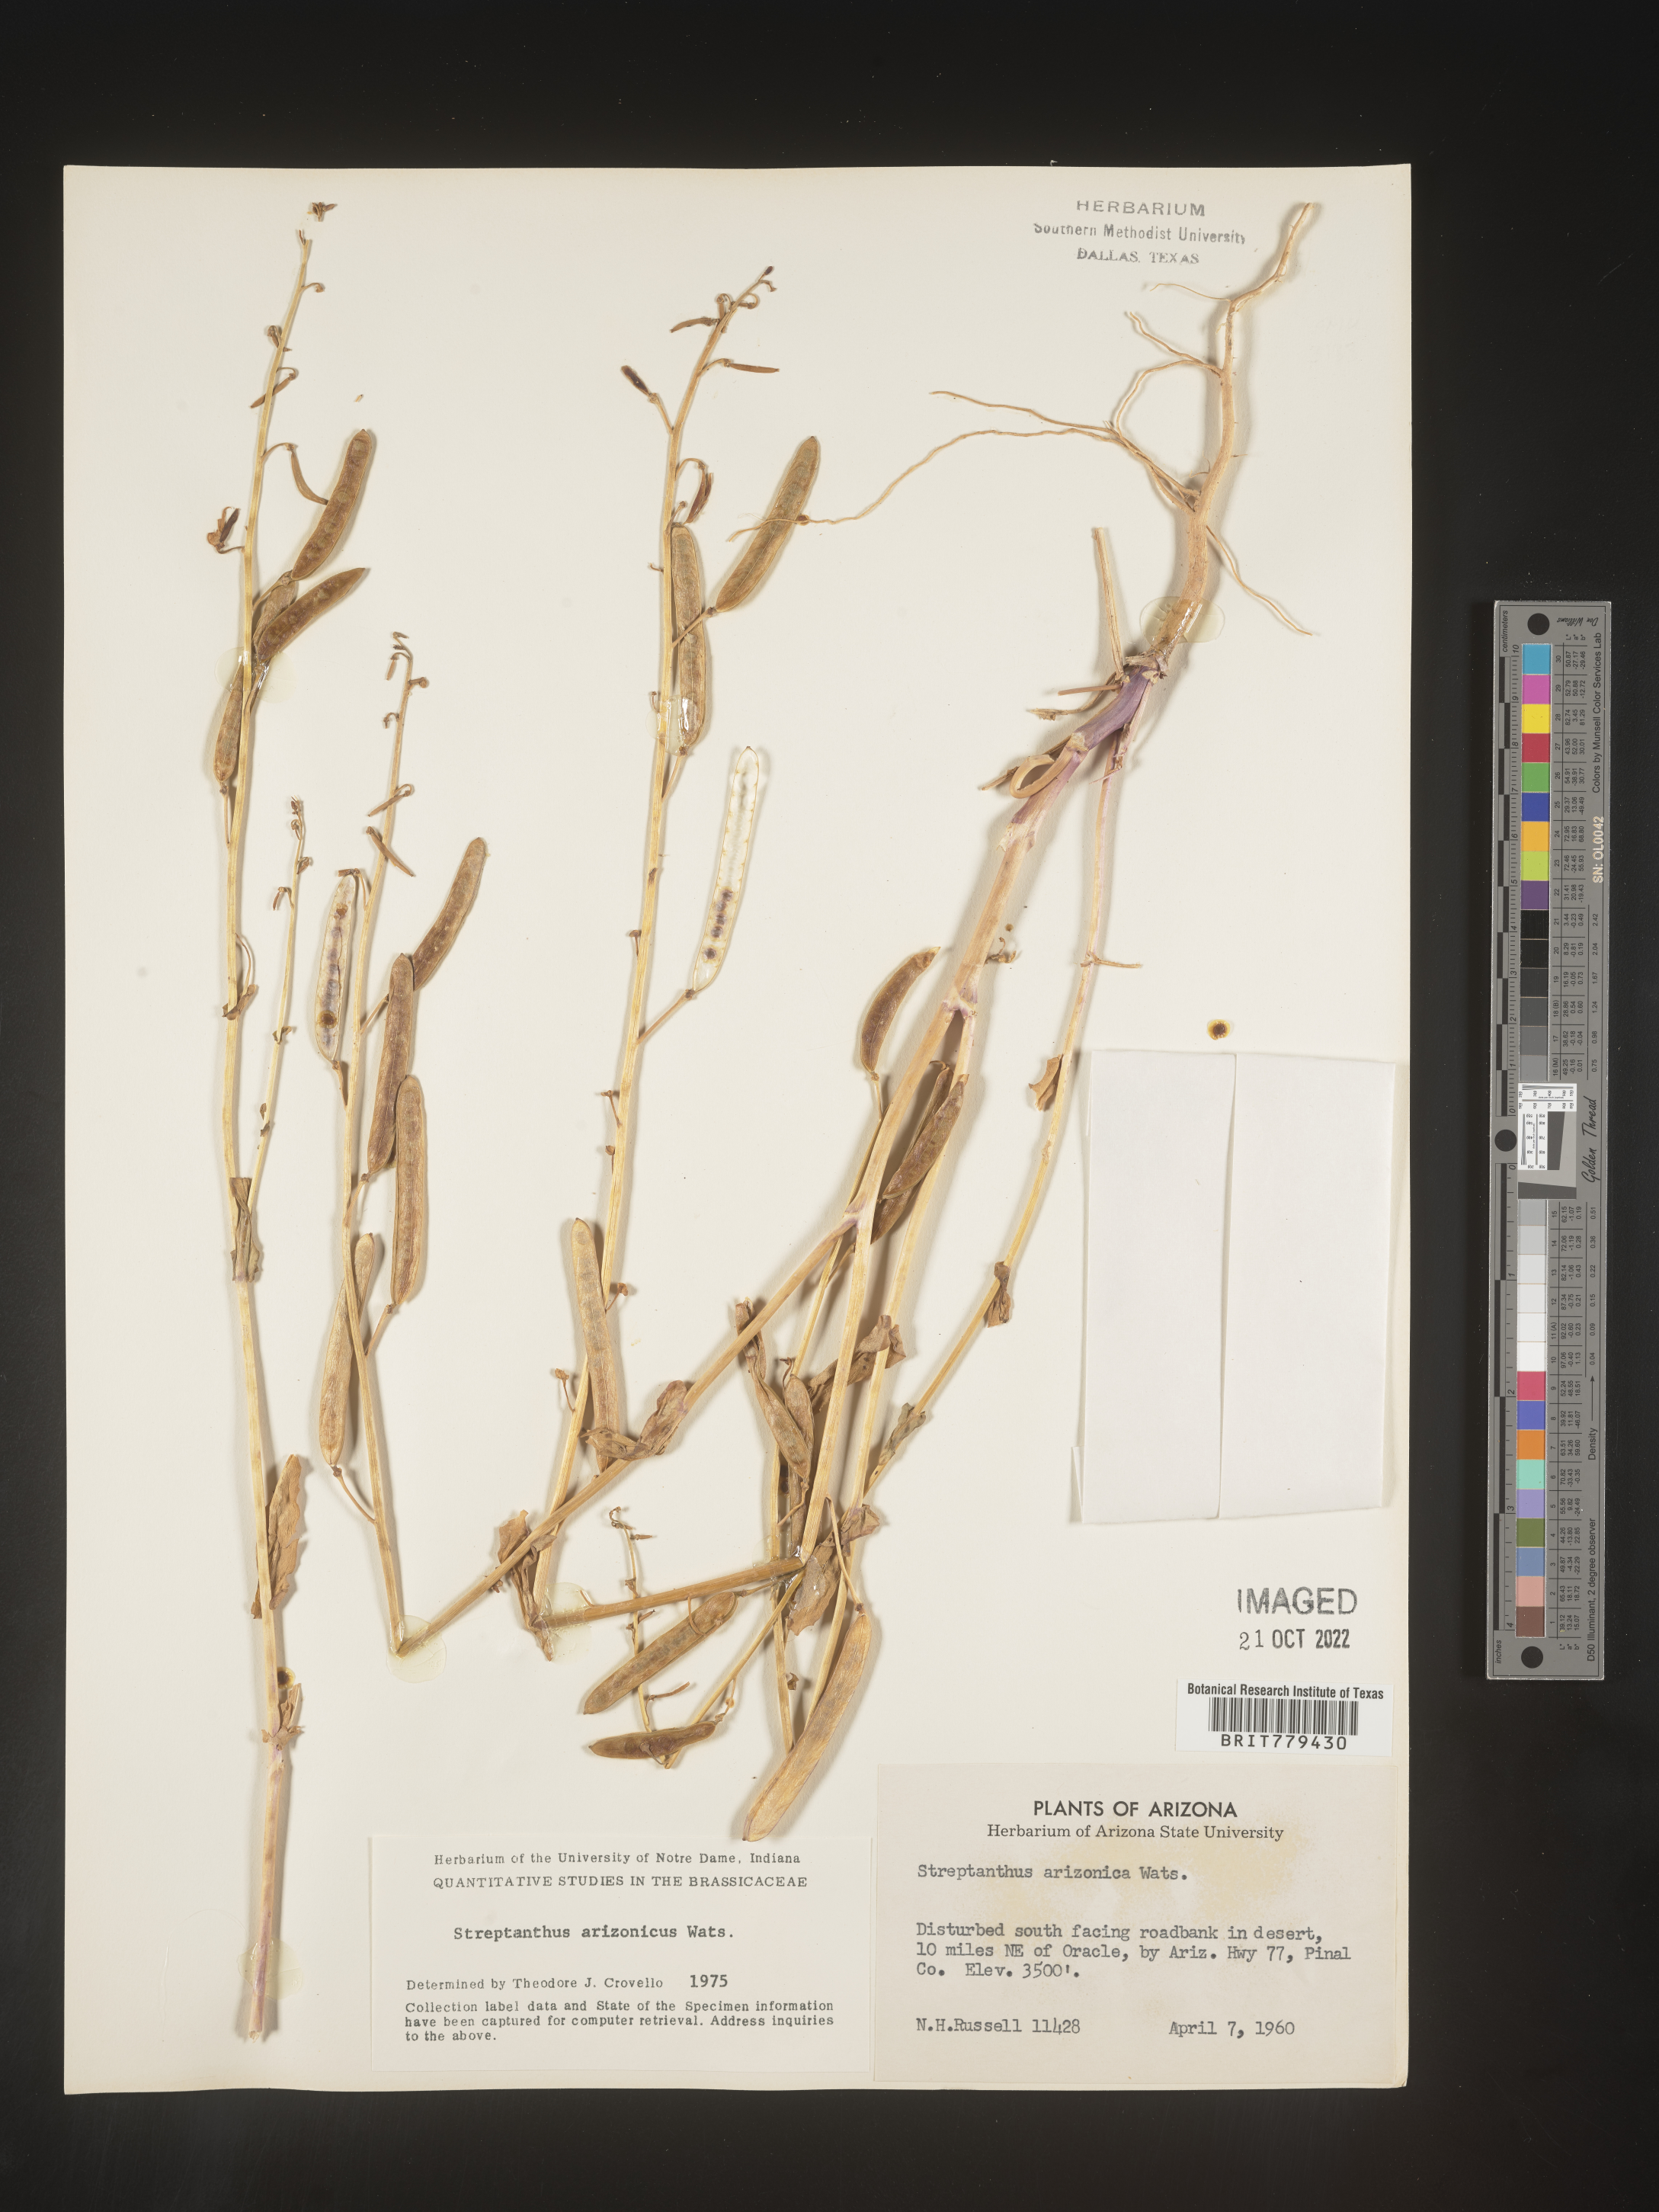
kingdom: Plantae
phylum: Tracheophyta
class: Magnoliopsida
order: Brassicales
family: Brassicaceae
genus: Streptanthus
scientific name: Streptanthus
